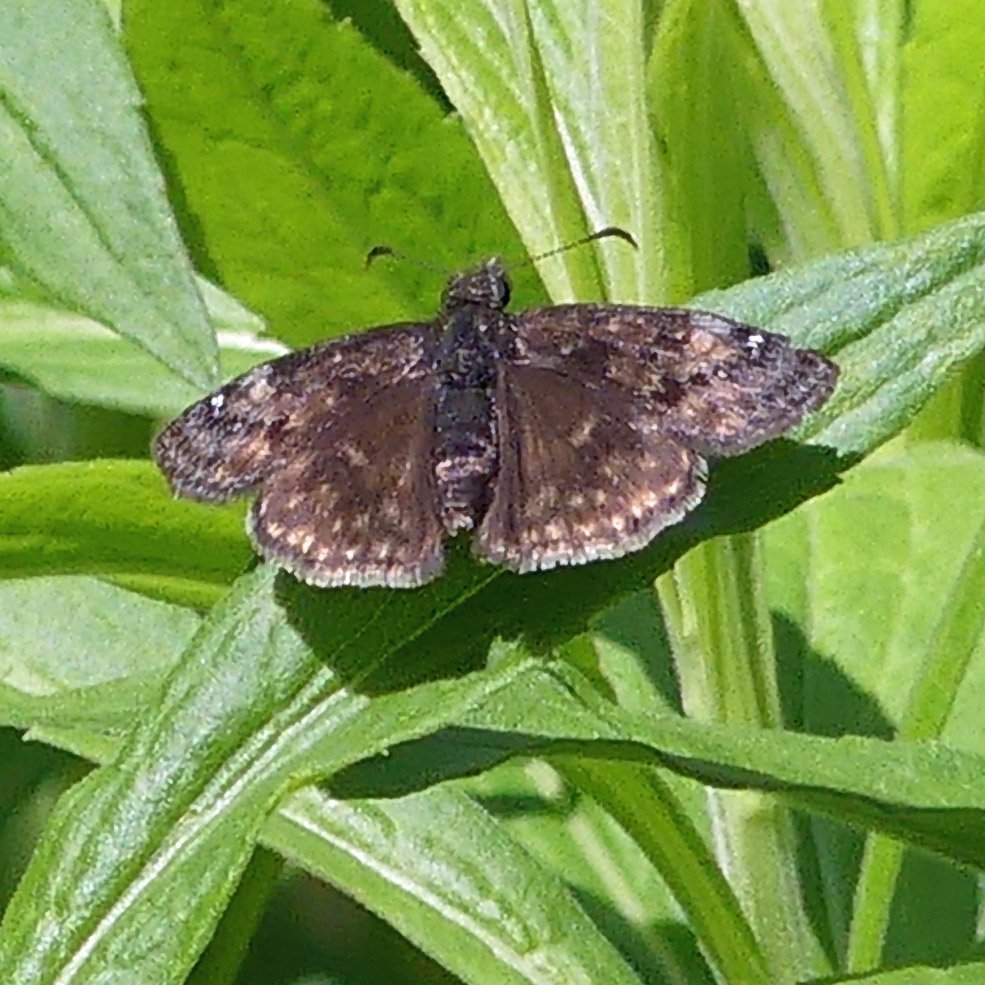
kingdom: Animalia
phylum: Arthropoda
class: Insecta
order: Lepidoptera
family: Hesperiidae
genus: Gesta
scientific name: Gesta
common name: Wild Indigo Duskywing
